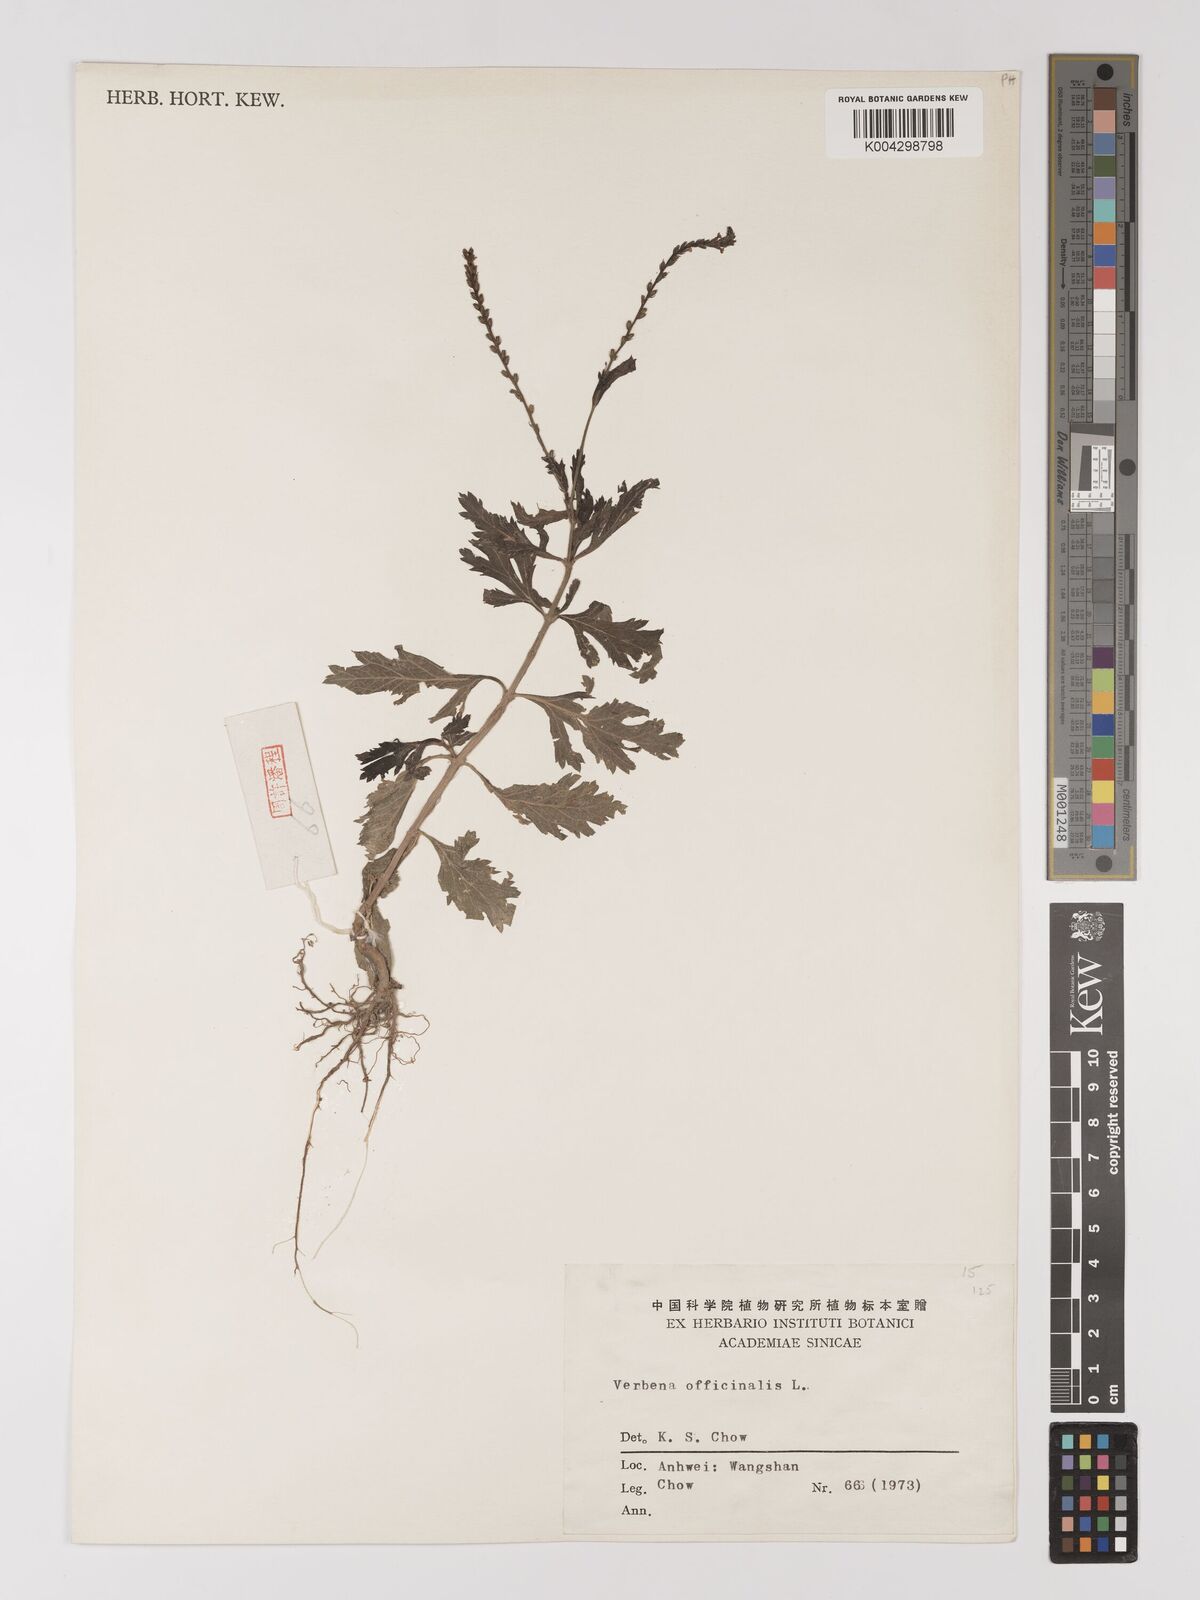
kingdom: Plantae
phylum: Tracheophyta
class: Magnoliopsida
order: Lamiales
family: Verbenaceae
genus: Verbena
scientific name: Verbena officinalis
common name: Vervain
